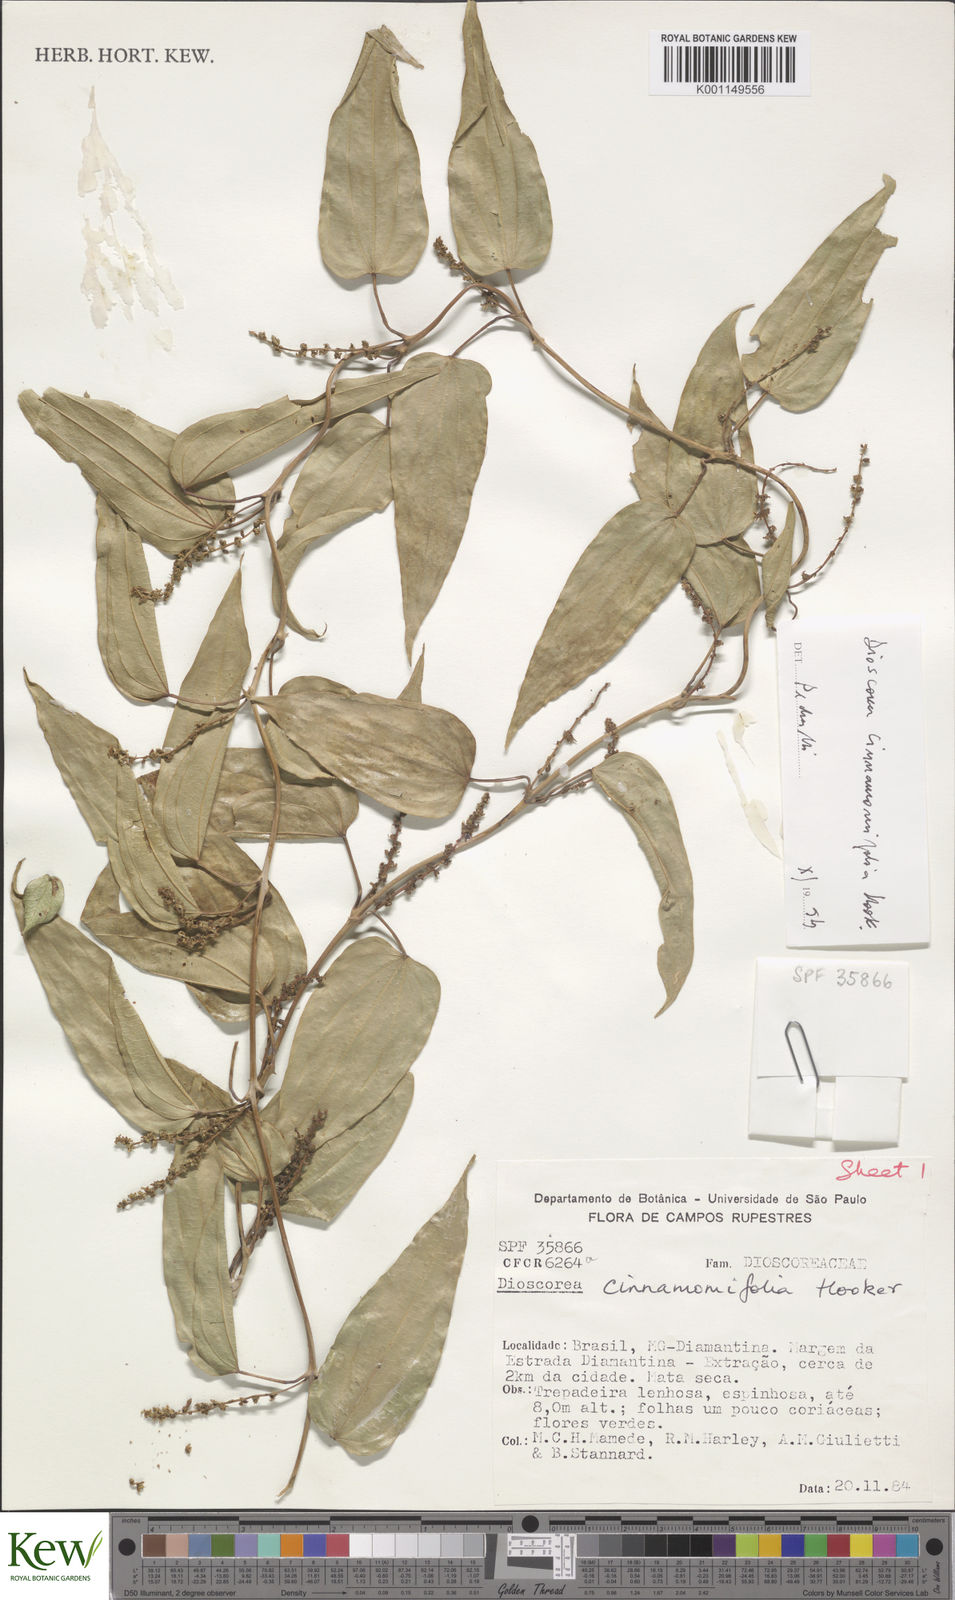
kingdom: Plantae
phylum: Tracheophyta
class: Liliopsida
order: Dioscoreales
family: Dioscoreaceae
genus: Dioscorea
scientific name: Dioscorea basiclavicaulis
